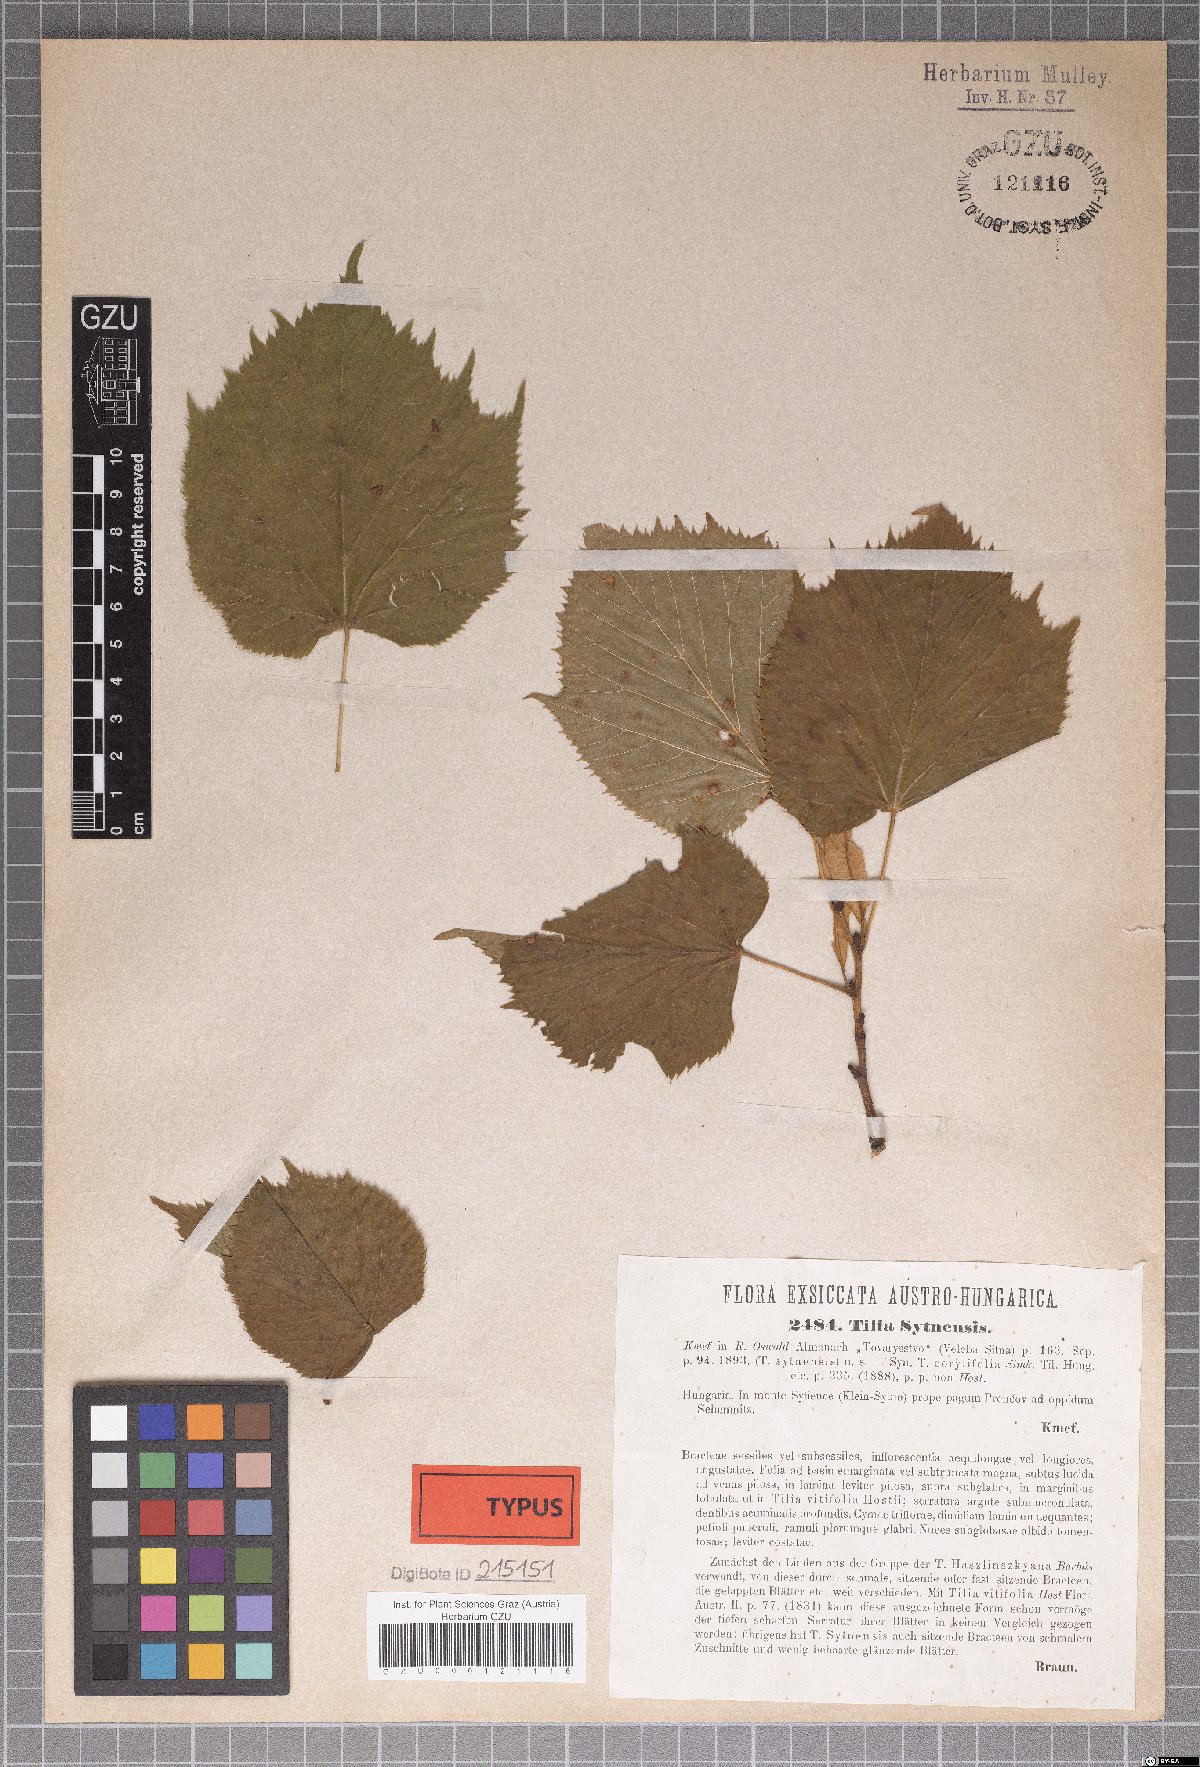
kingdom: Plantae
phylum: Tracheophyta
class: Magnoliopsida
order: Malvales
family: Malvaceae
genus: Tilia
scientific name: Tilia platyphyllos
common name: Large-leaved lime
